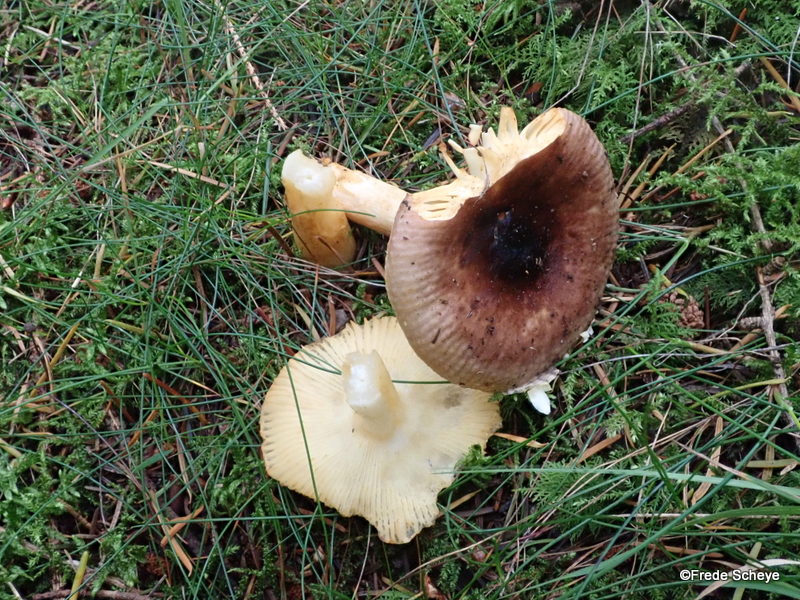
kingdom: Fungi
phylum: Basidiomycota
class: Agaricomycetes
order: Russulales
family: Russulaceae
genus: Russula
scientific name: Russula puellaris
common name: gulstokket skørhat
